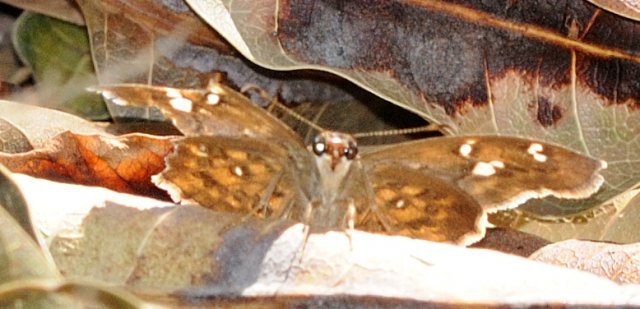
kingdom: Animalia
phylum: Arthropoda
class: Insecta
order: Lepidoptera
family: Hesperiidae
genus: Sarangesa
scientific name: Sarangesa motozi
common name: Forest Elfin
